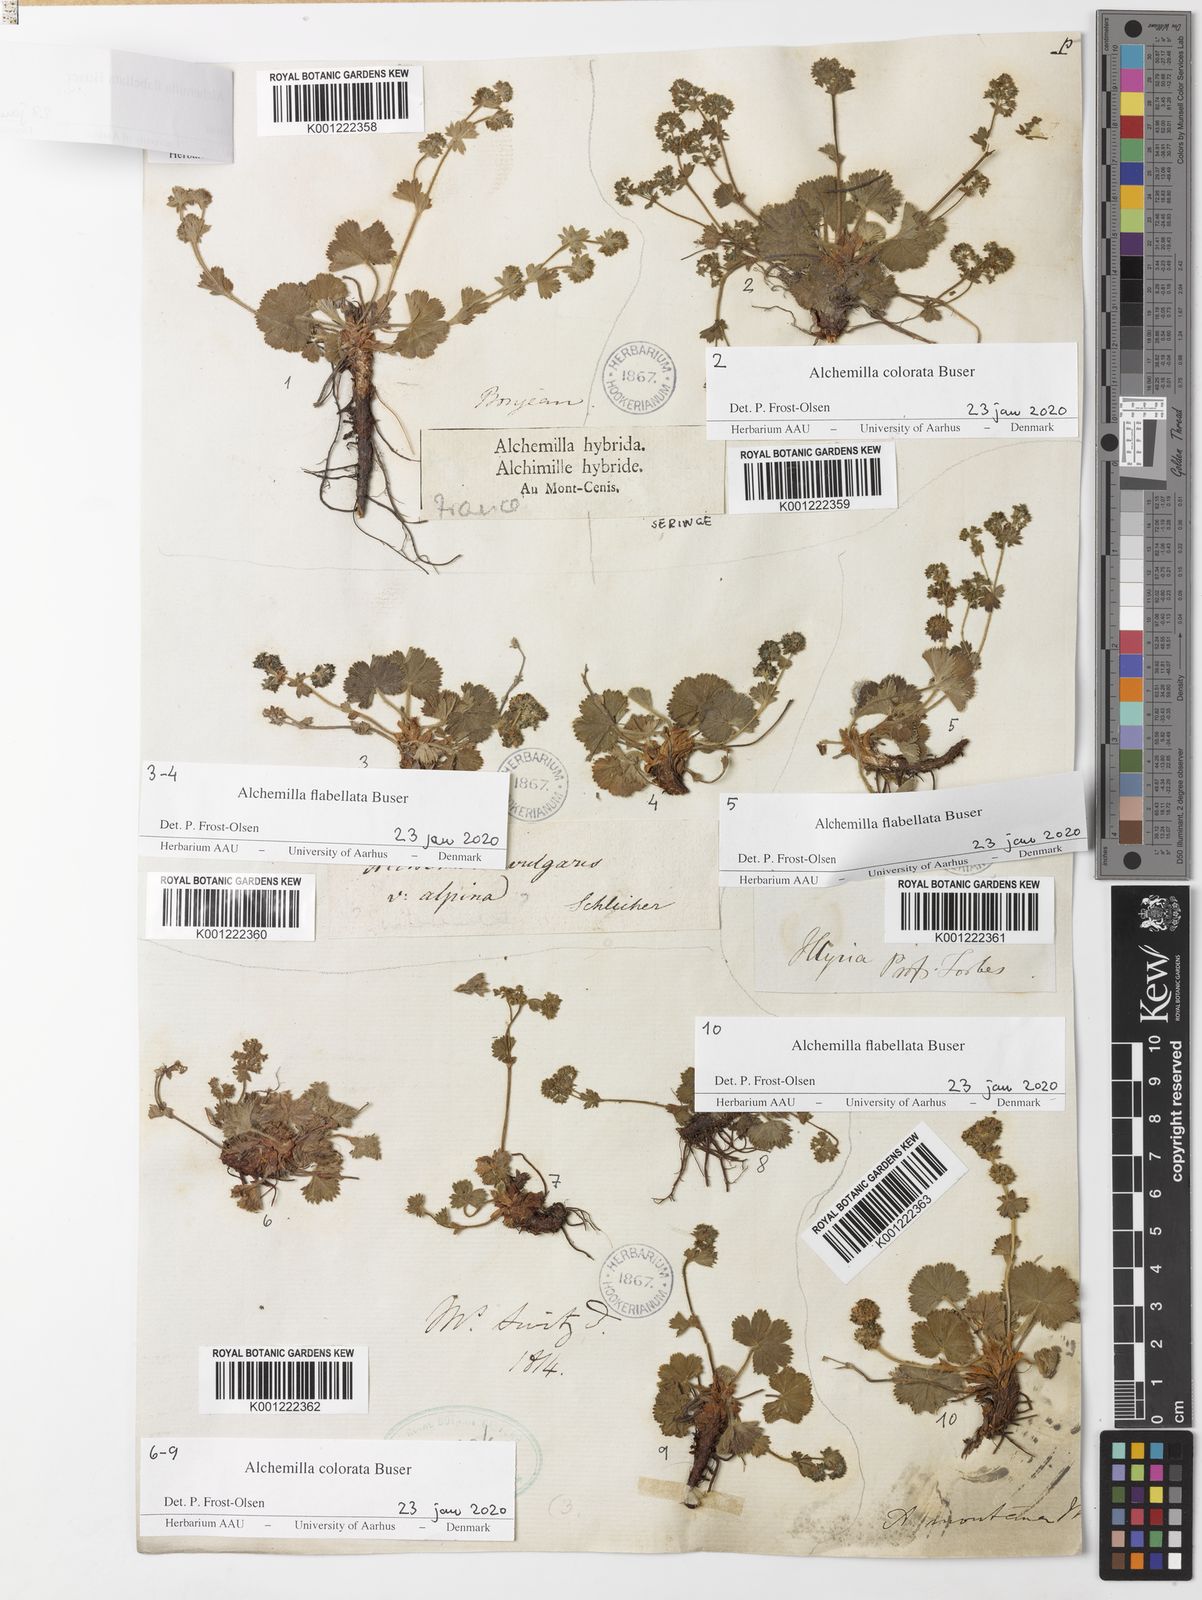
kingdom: Plantae
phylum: Tracheophyta
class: Magnoliopsida
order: Rosales
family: Rosaceae
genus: Alchemilla
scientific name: Alchemilla flabellata
